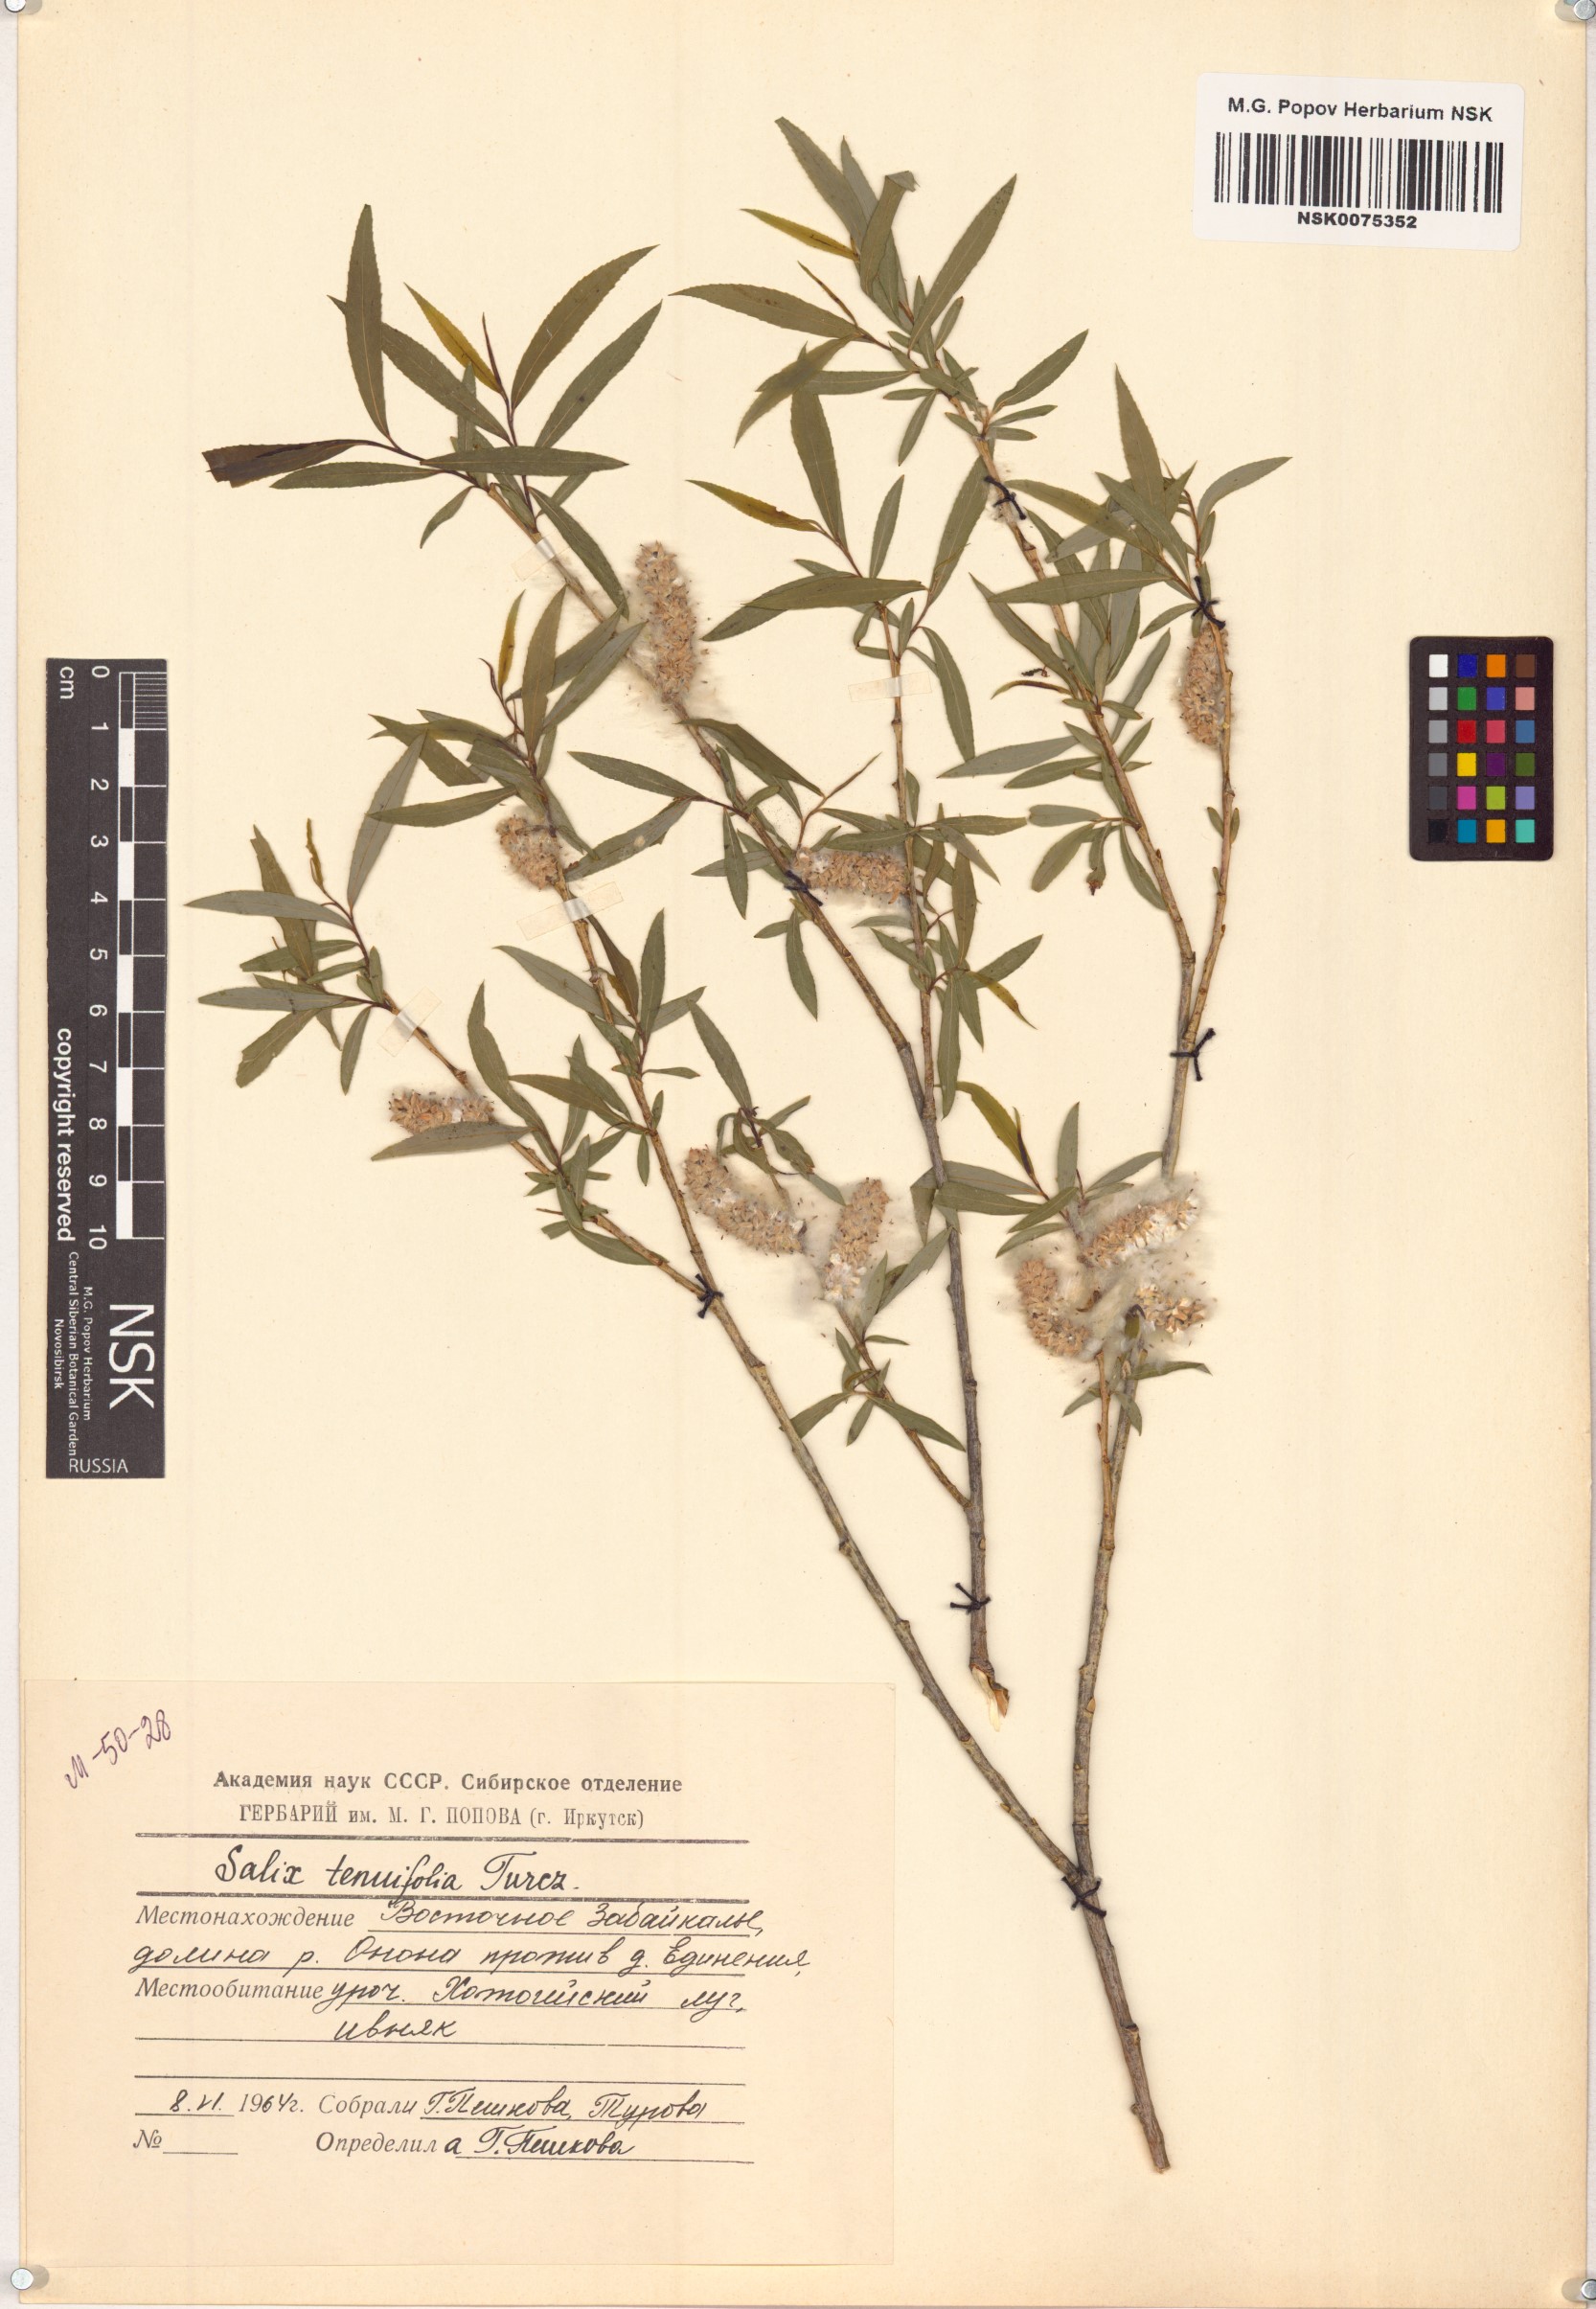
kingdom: Plantae
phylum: Tracheophyta
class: Magnoliopsida
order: Malpighiales
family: Salicaceae
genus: Salix
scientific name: Salix
